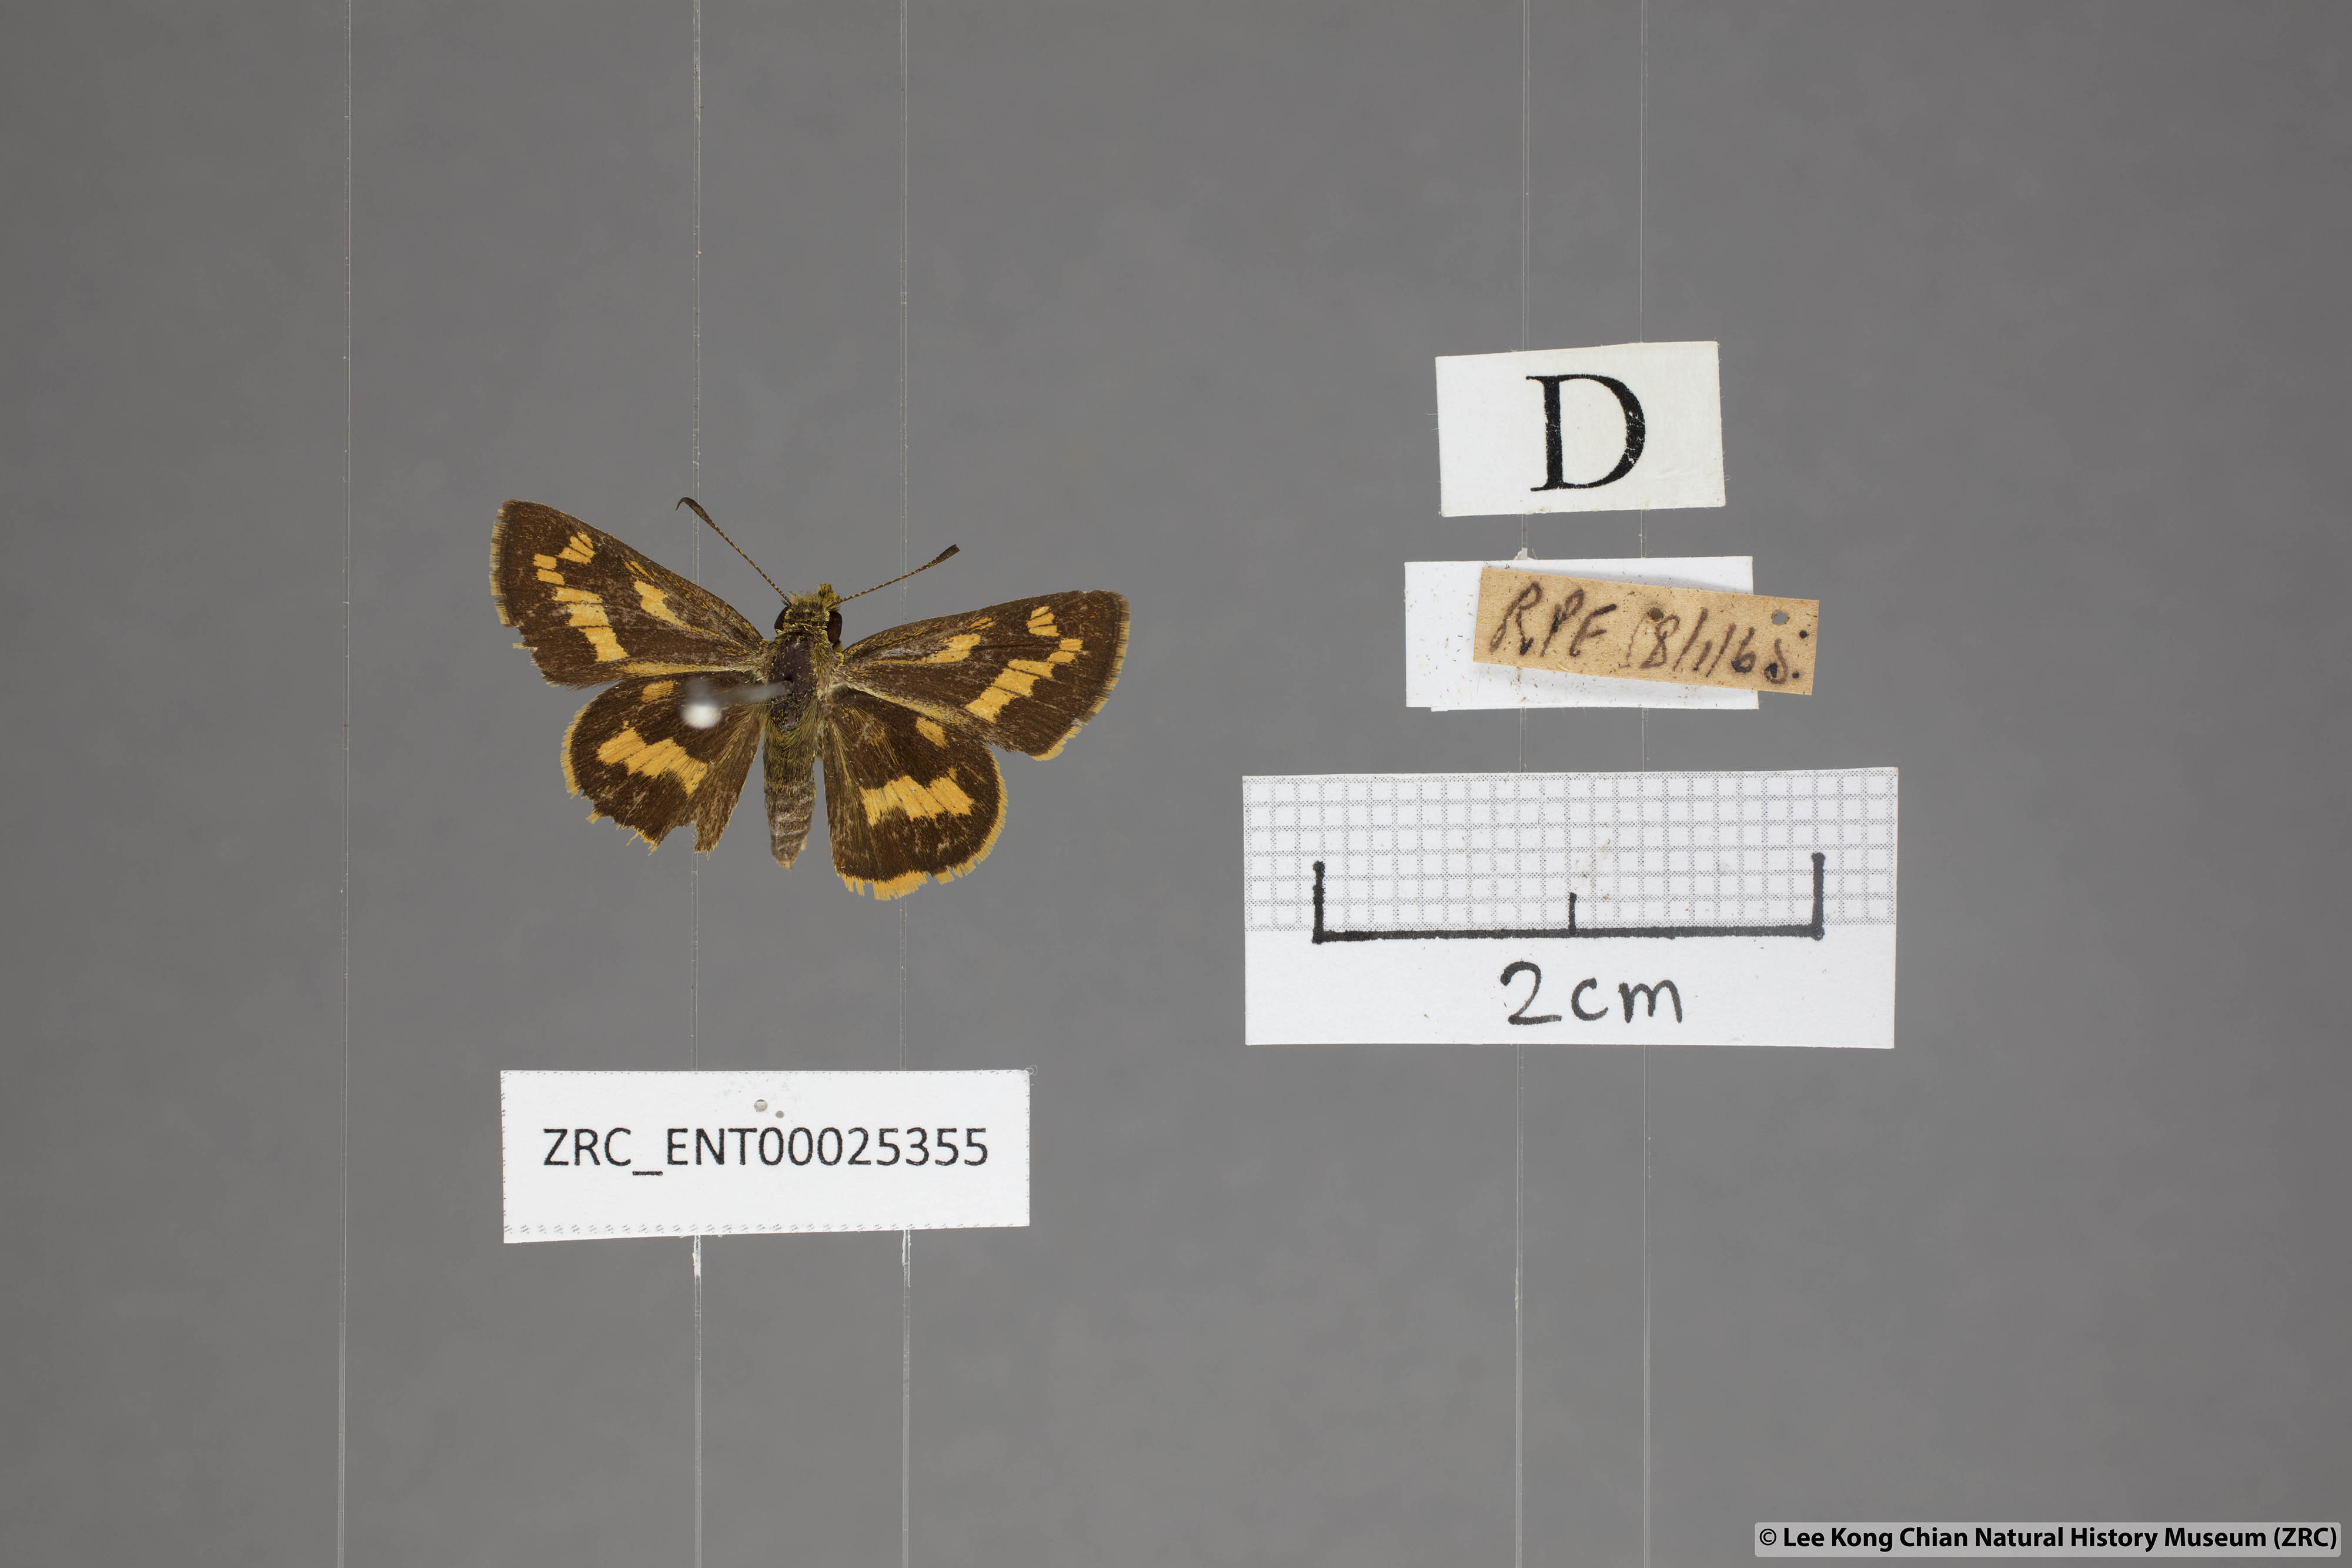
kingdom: Animalia
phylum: Arthropoda
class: Insecta
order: Lepidoptera
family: Hesperiidae
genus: Potanthus
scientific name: Potanthus confucius
